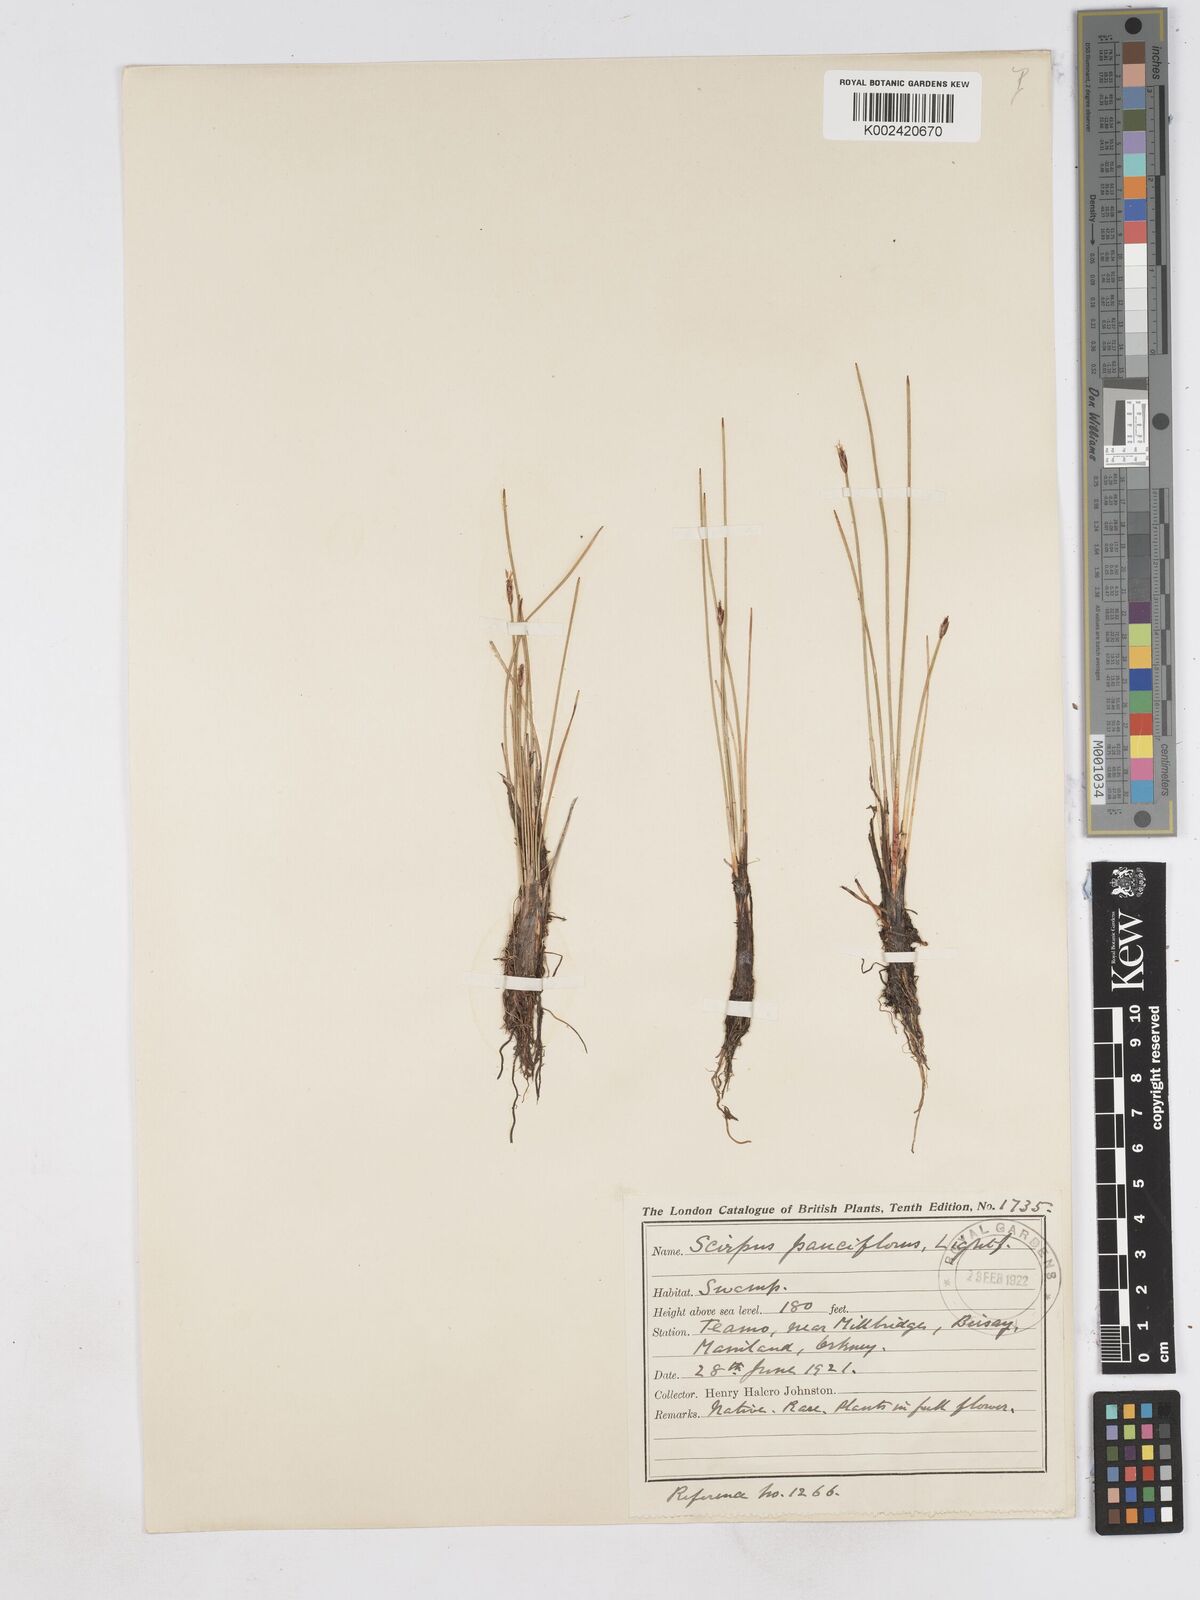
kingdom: Plantae
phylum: Tracheophyta
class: Liliopsida
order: Poales
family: Cyperaceae
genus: Eleocharis
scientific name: Eleocharis quinqueflora
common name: Few-flowered spike-rush
